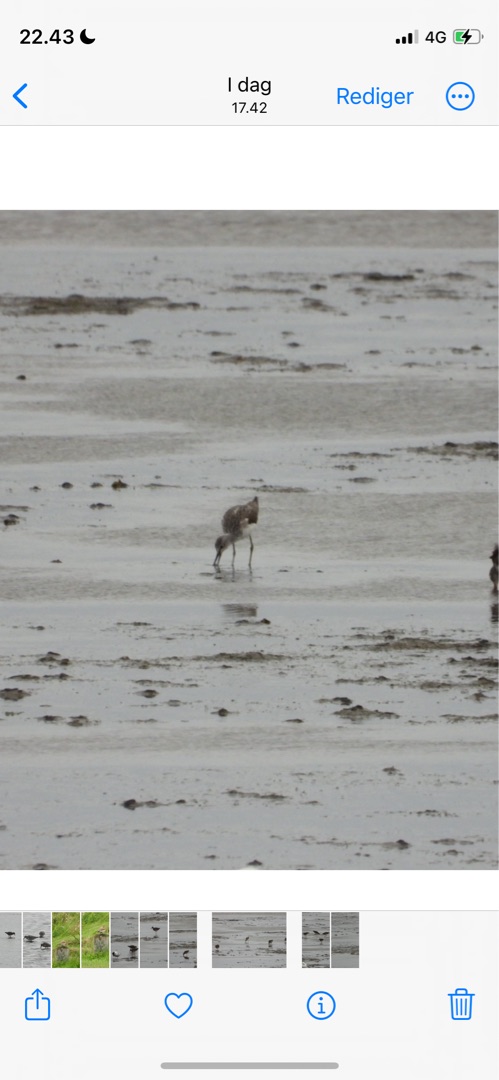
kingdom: Animalia
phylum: Chordata
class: Aves
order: Charadriiformes
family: Scolopacidae
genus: Tringa
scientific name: Tringa nebularia
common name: Hvidklire
